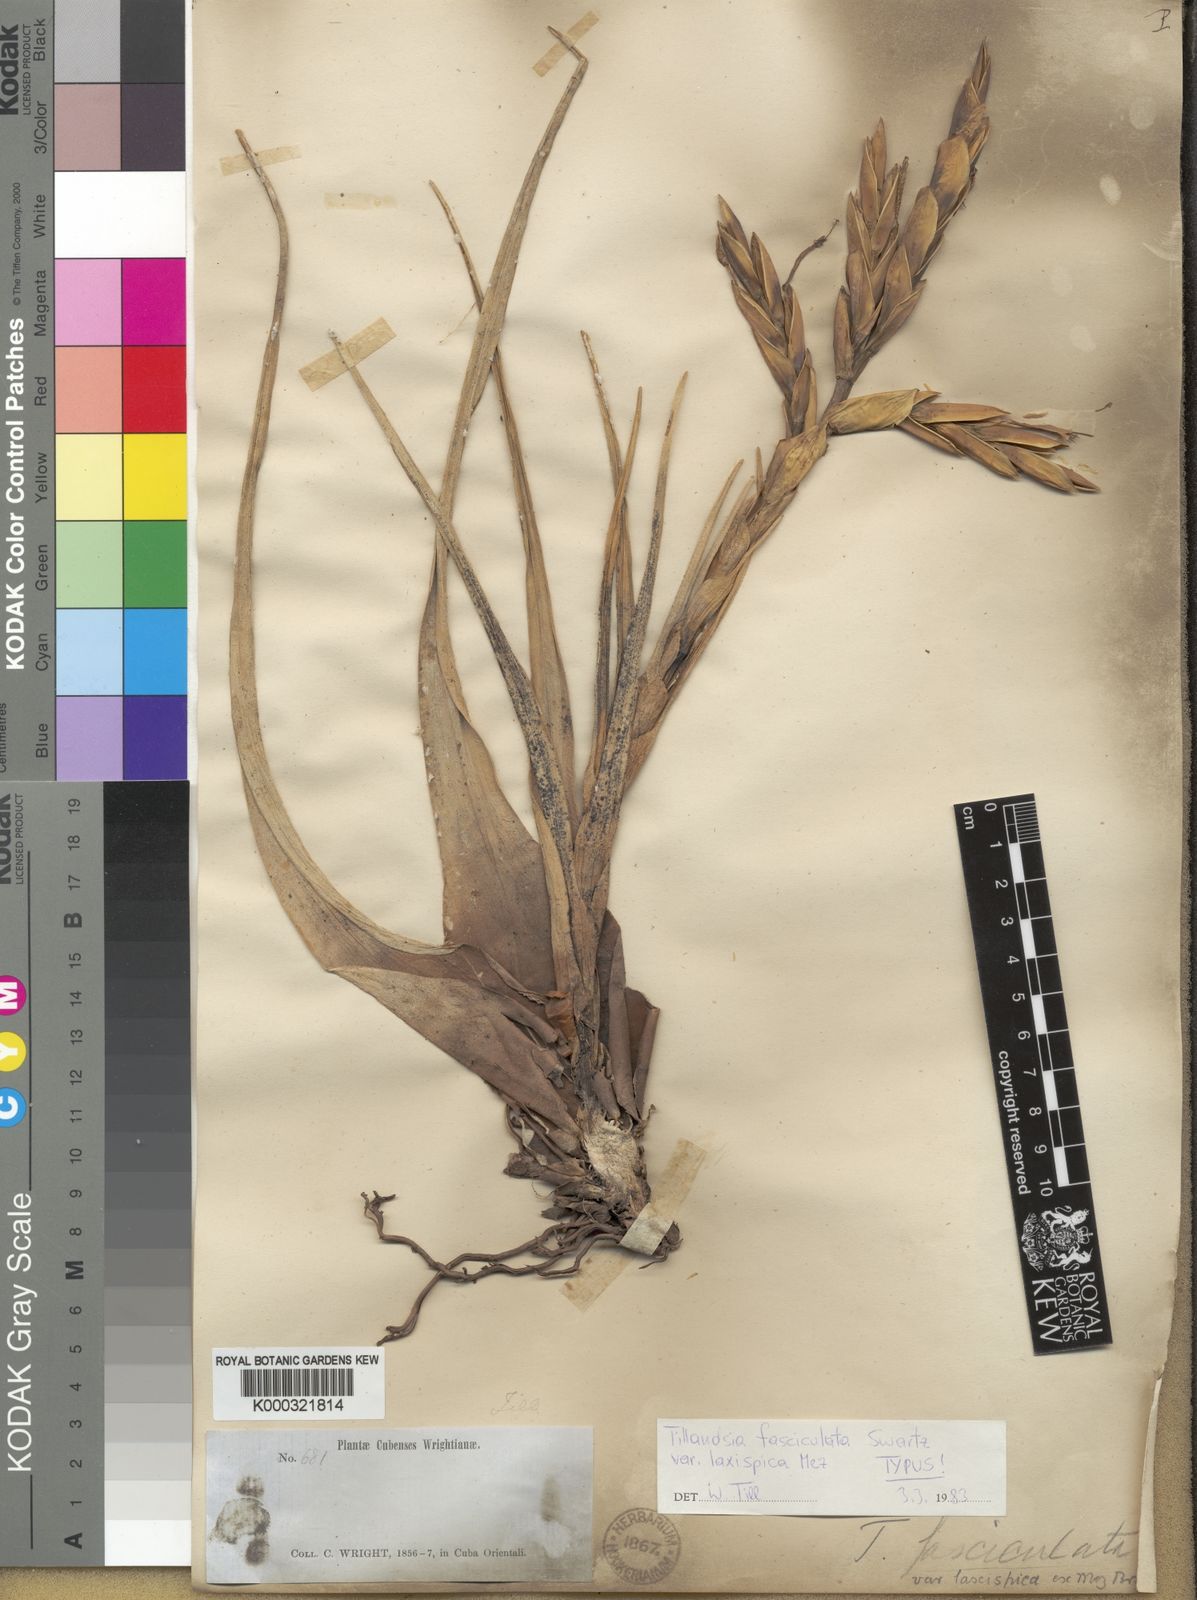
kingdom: Plantae
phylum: Tracheophyta
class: Liliopsida
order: Poales
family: Bromeliaceae
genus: Tillandsia
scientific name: Tillandsia fasciculata
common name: Giant airplant
